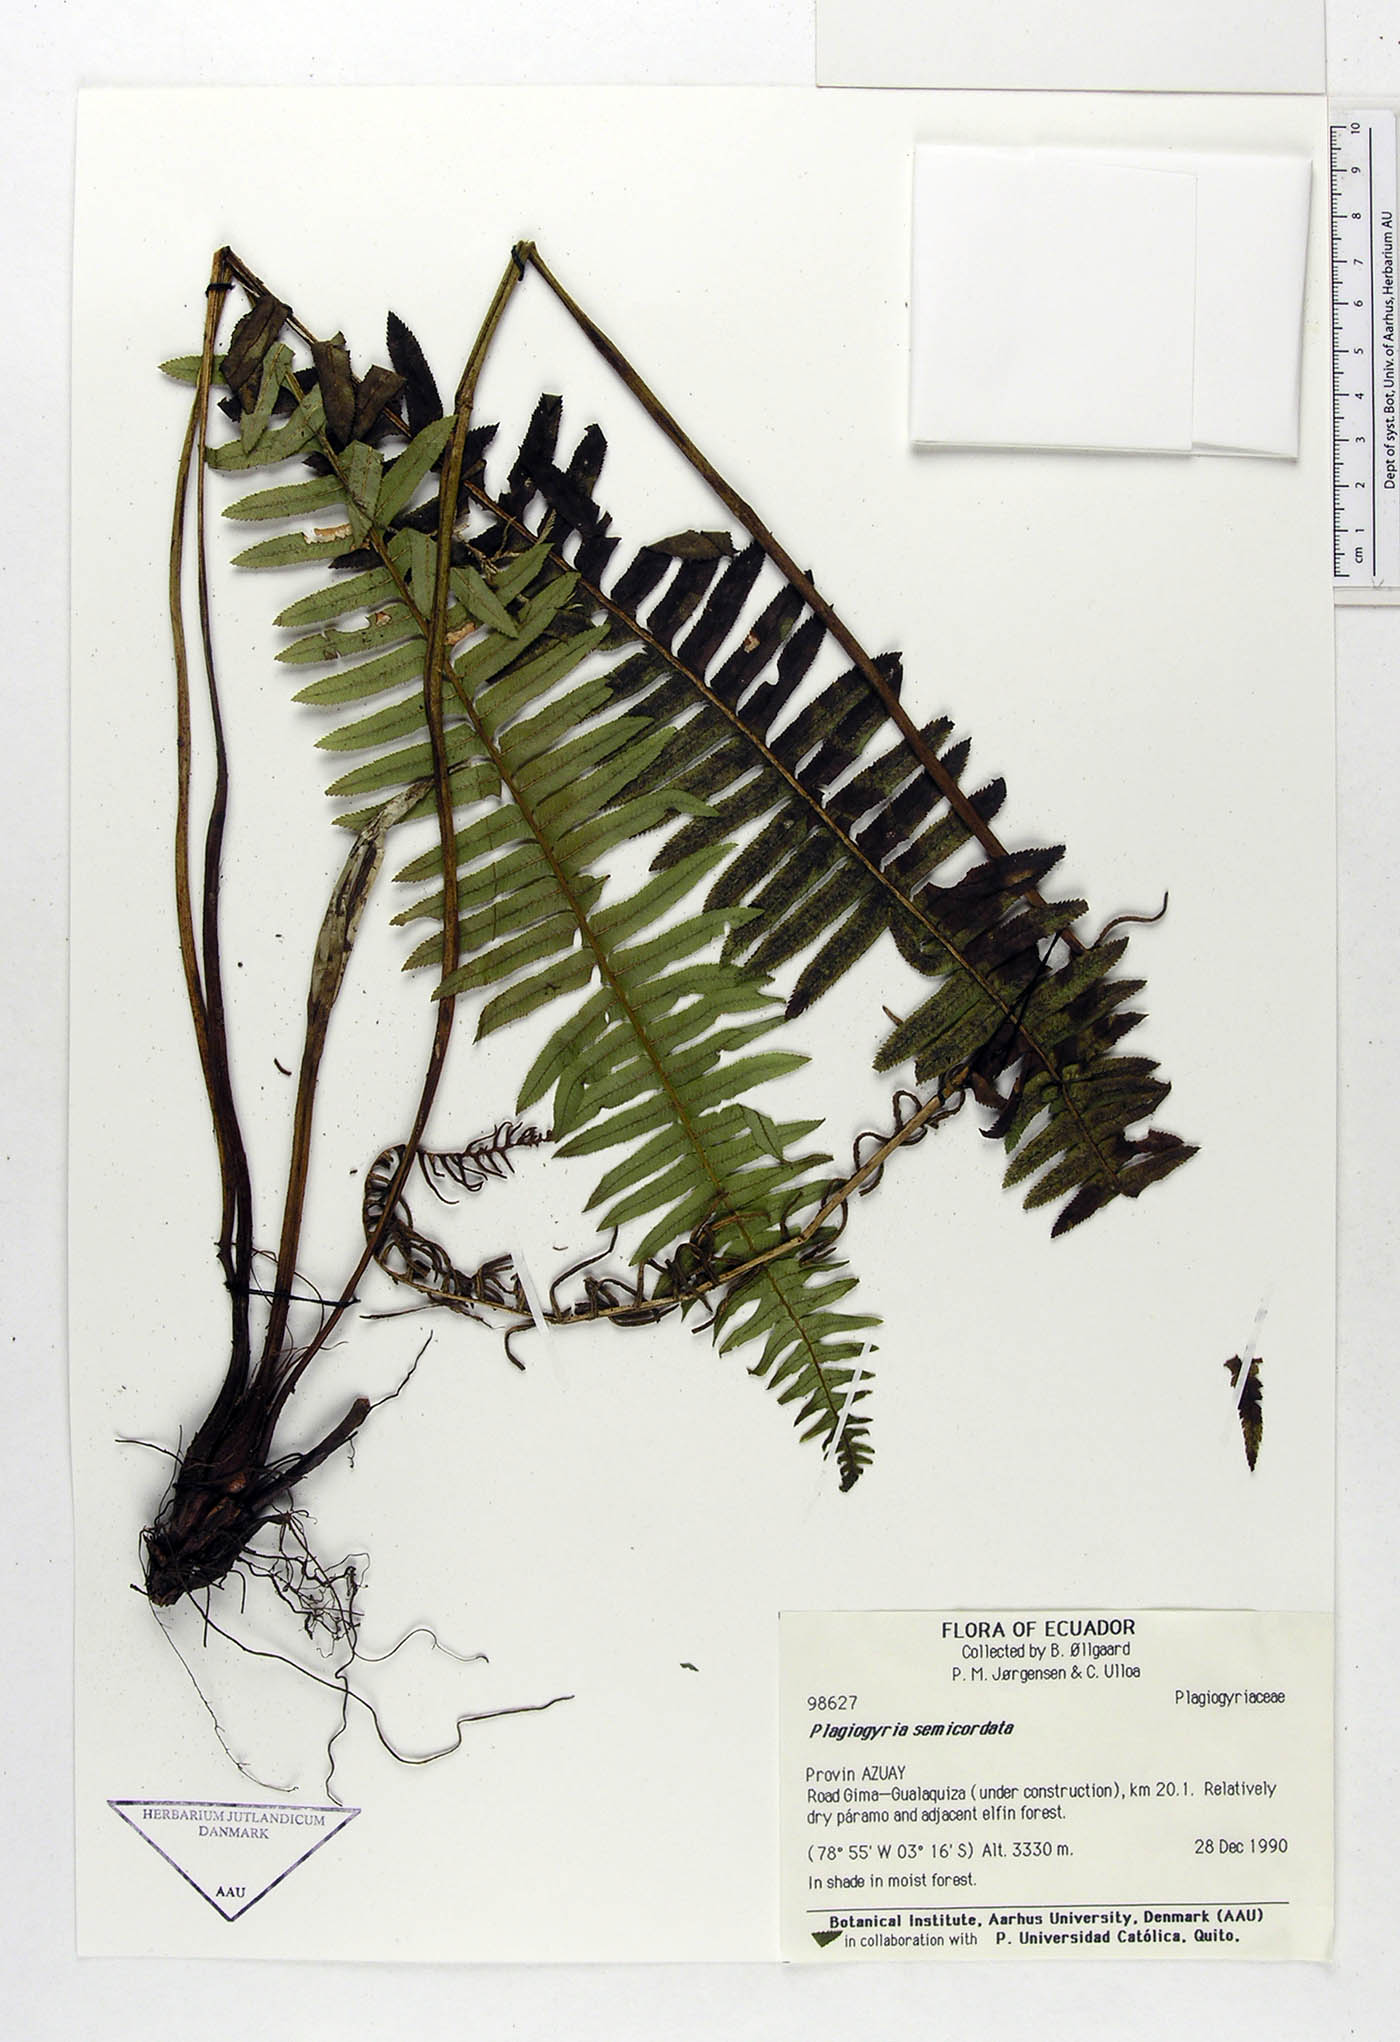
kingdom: Plantae
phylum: Tracheophyta
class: Polypodiopsida
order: Cyatheales
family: Plagiogyriaceae
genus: Plagiogyria
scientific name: Plagiogyria pectinata
